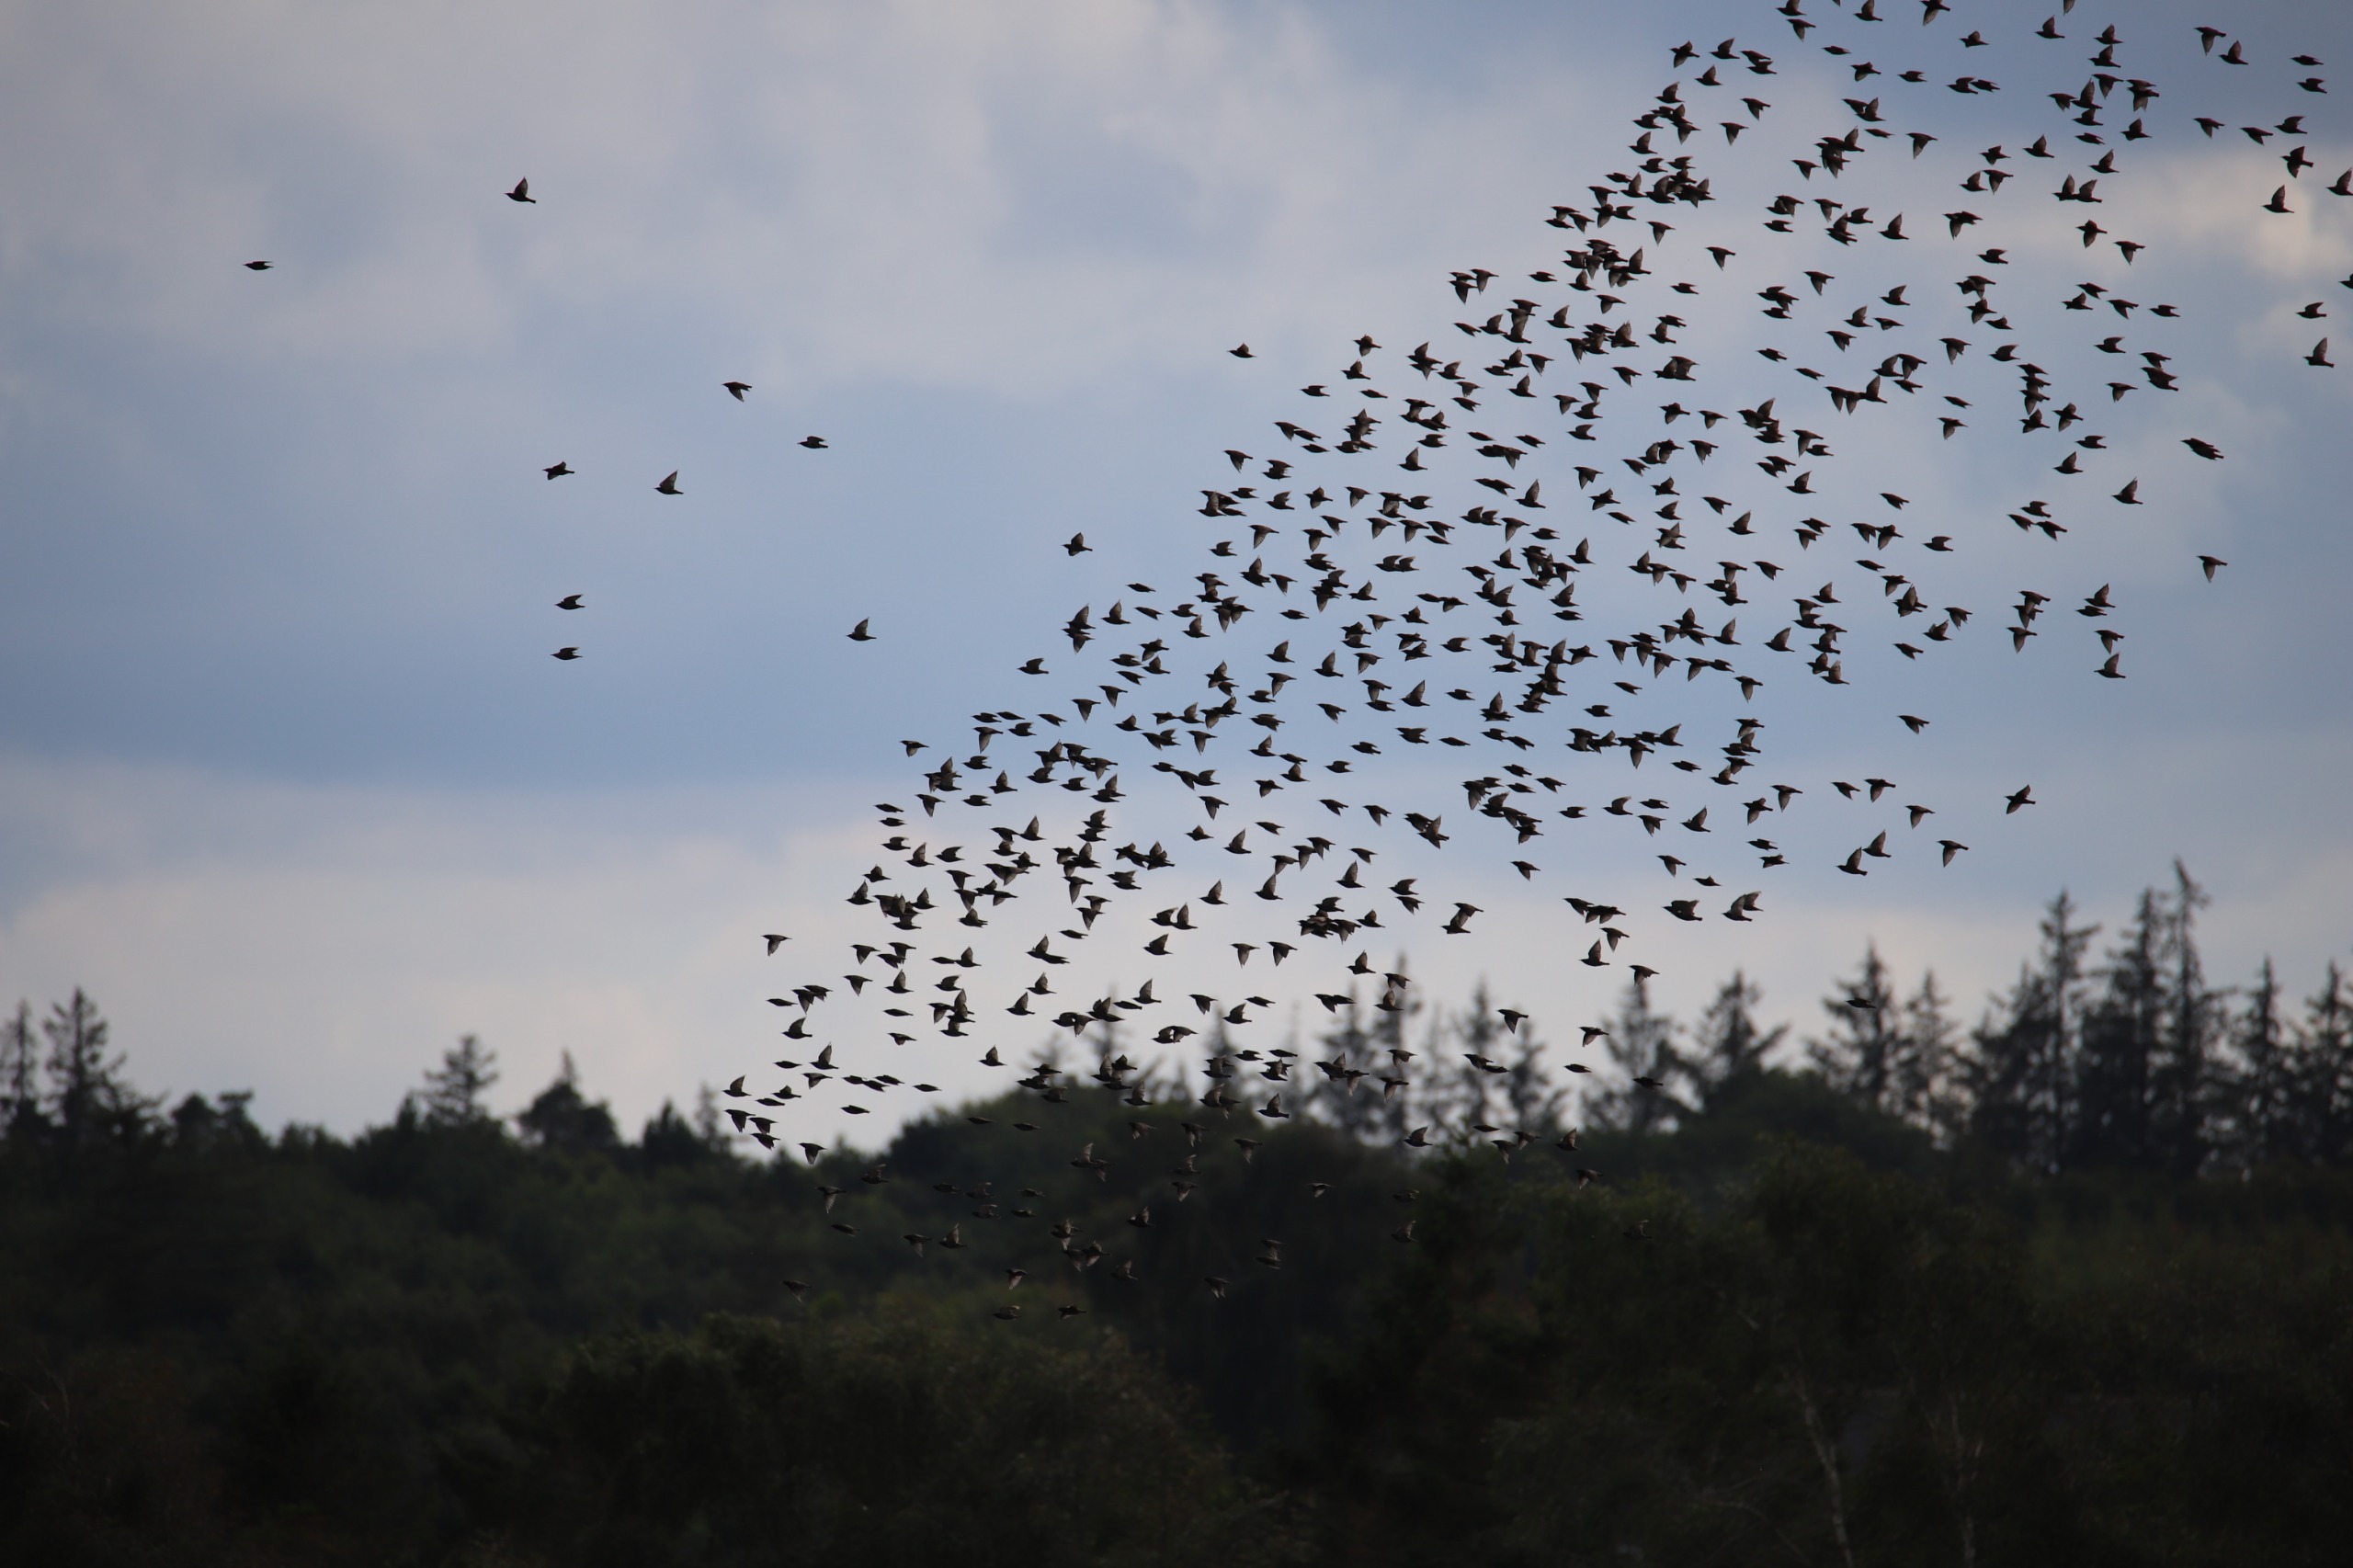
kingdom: Animalia
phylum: Chordata
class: Aves
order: Passeriformes
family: Sturnidae
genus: Sturnus
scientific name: Sturnus vulgaris
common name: Stær
